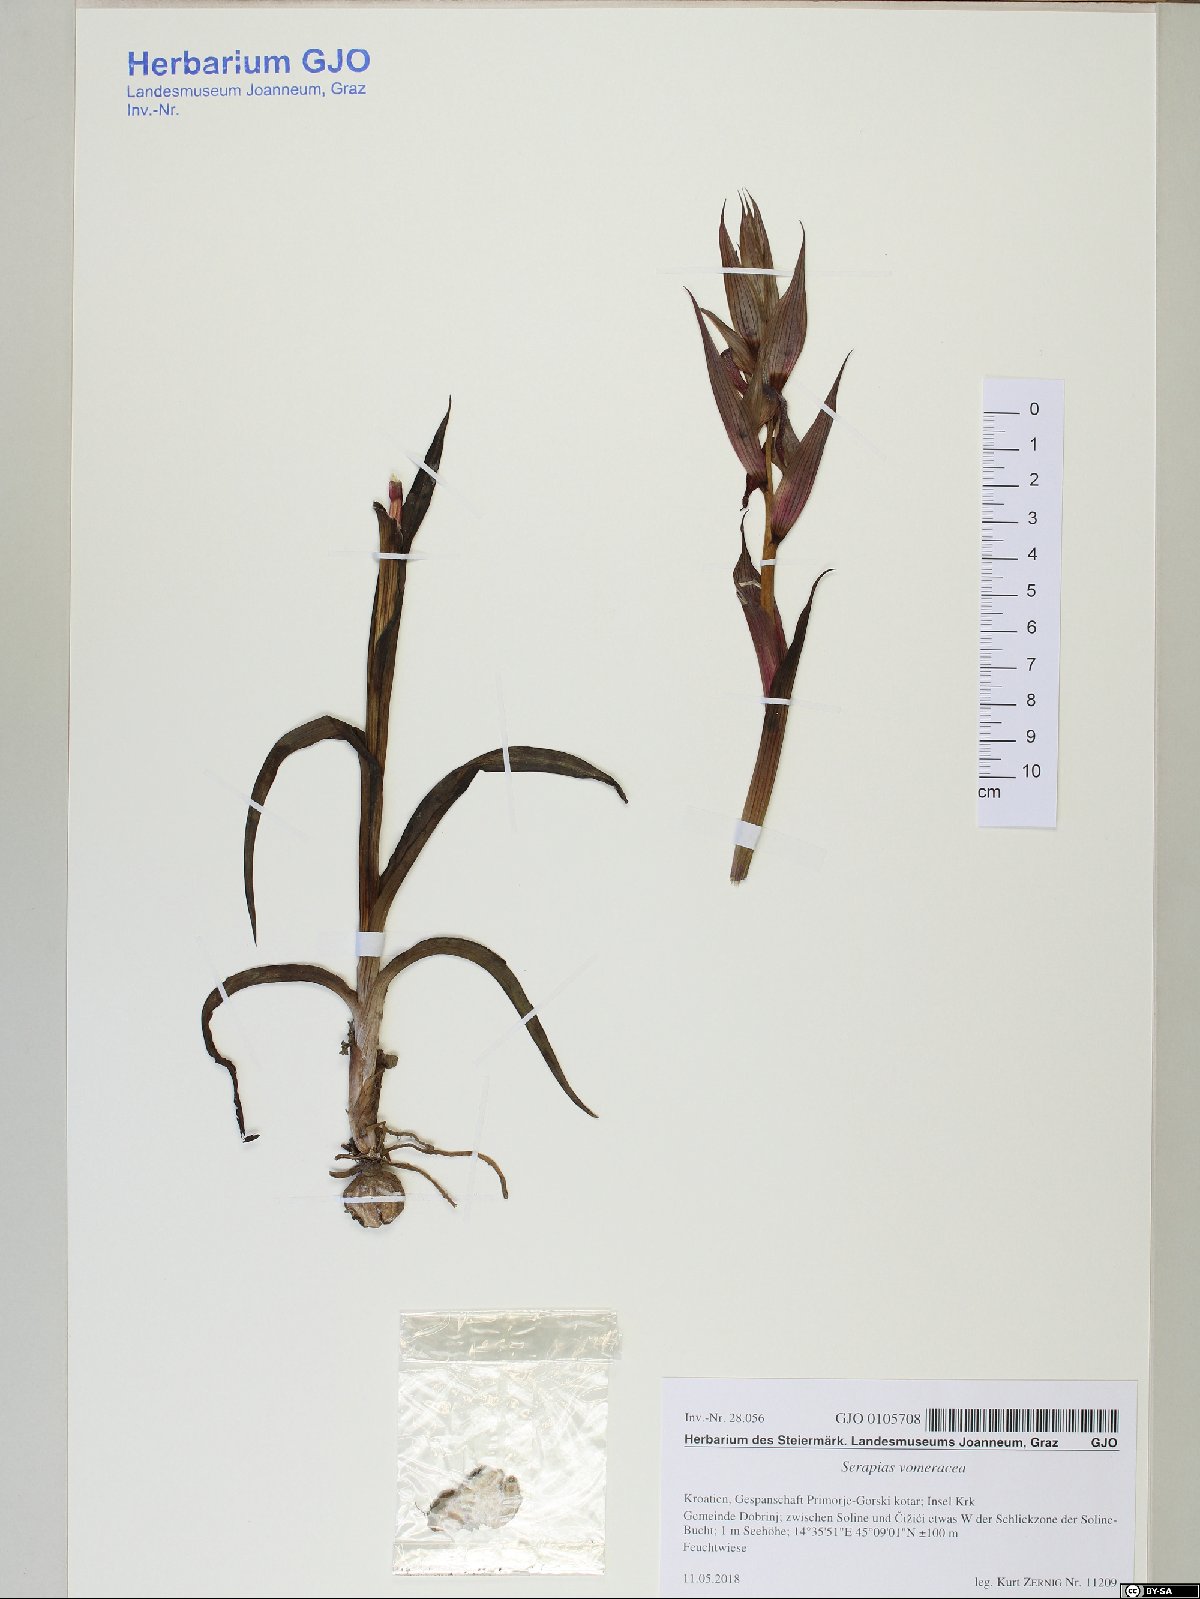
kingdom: Plantae
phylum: Tracheophyta
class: Liliopsida
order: Asparagales
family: Orchidaceae
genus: Serapias
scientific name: Serapias vomeracea
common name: Long-lipped tongue-orchid
